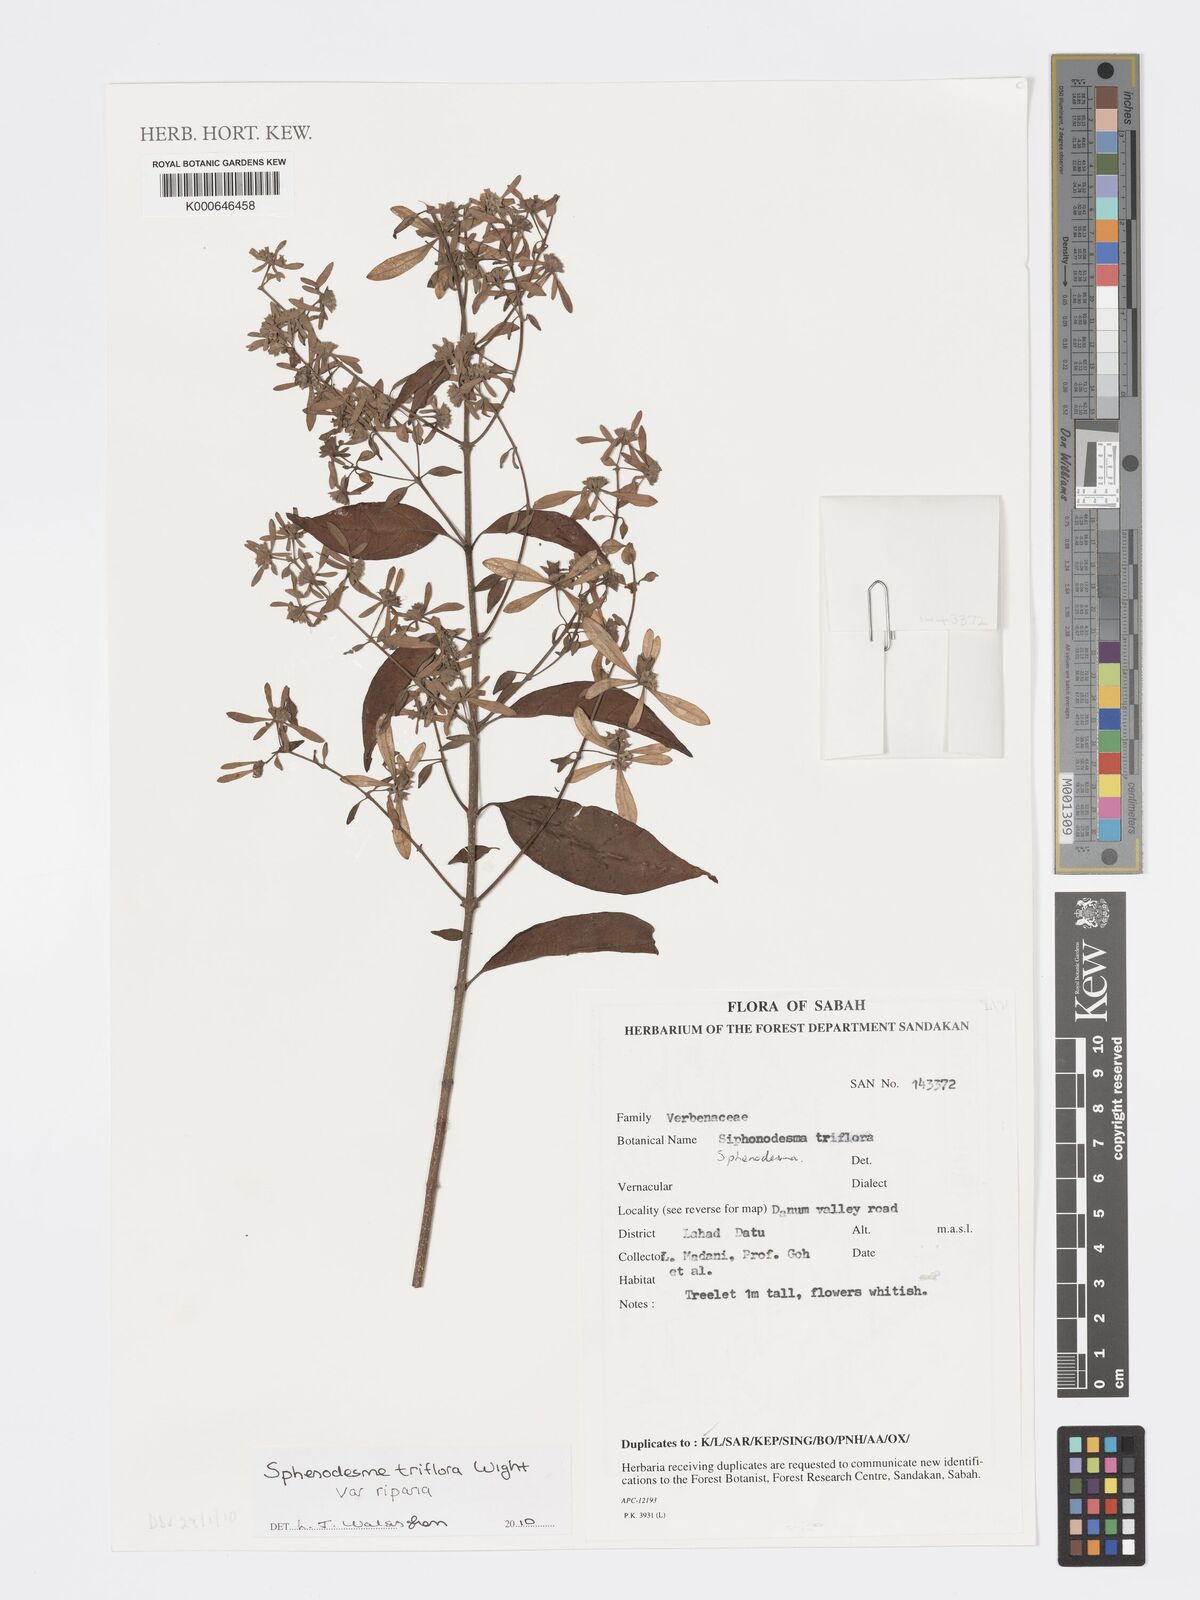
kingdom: Plantae
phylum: Tracheophyta
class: Magnoliopsida
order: Lamiales
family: Lamiaceae
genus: Sphenodesme
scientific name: Sphenodesme
